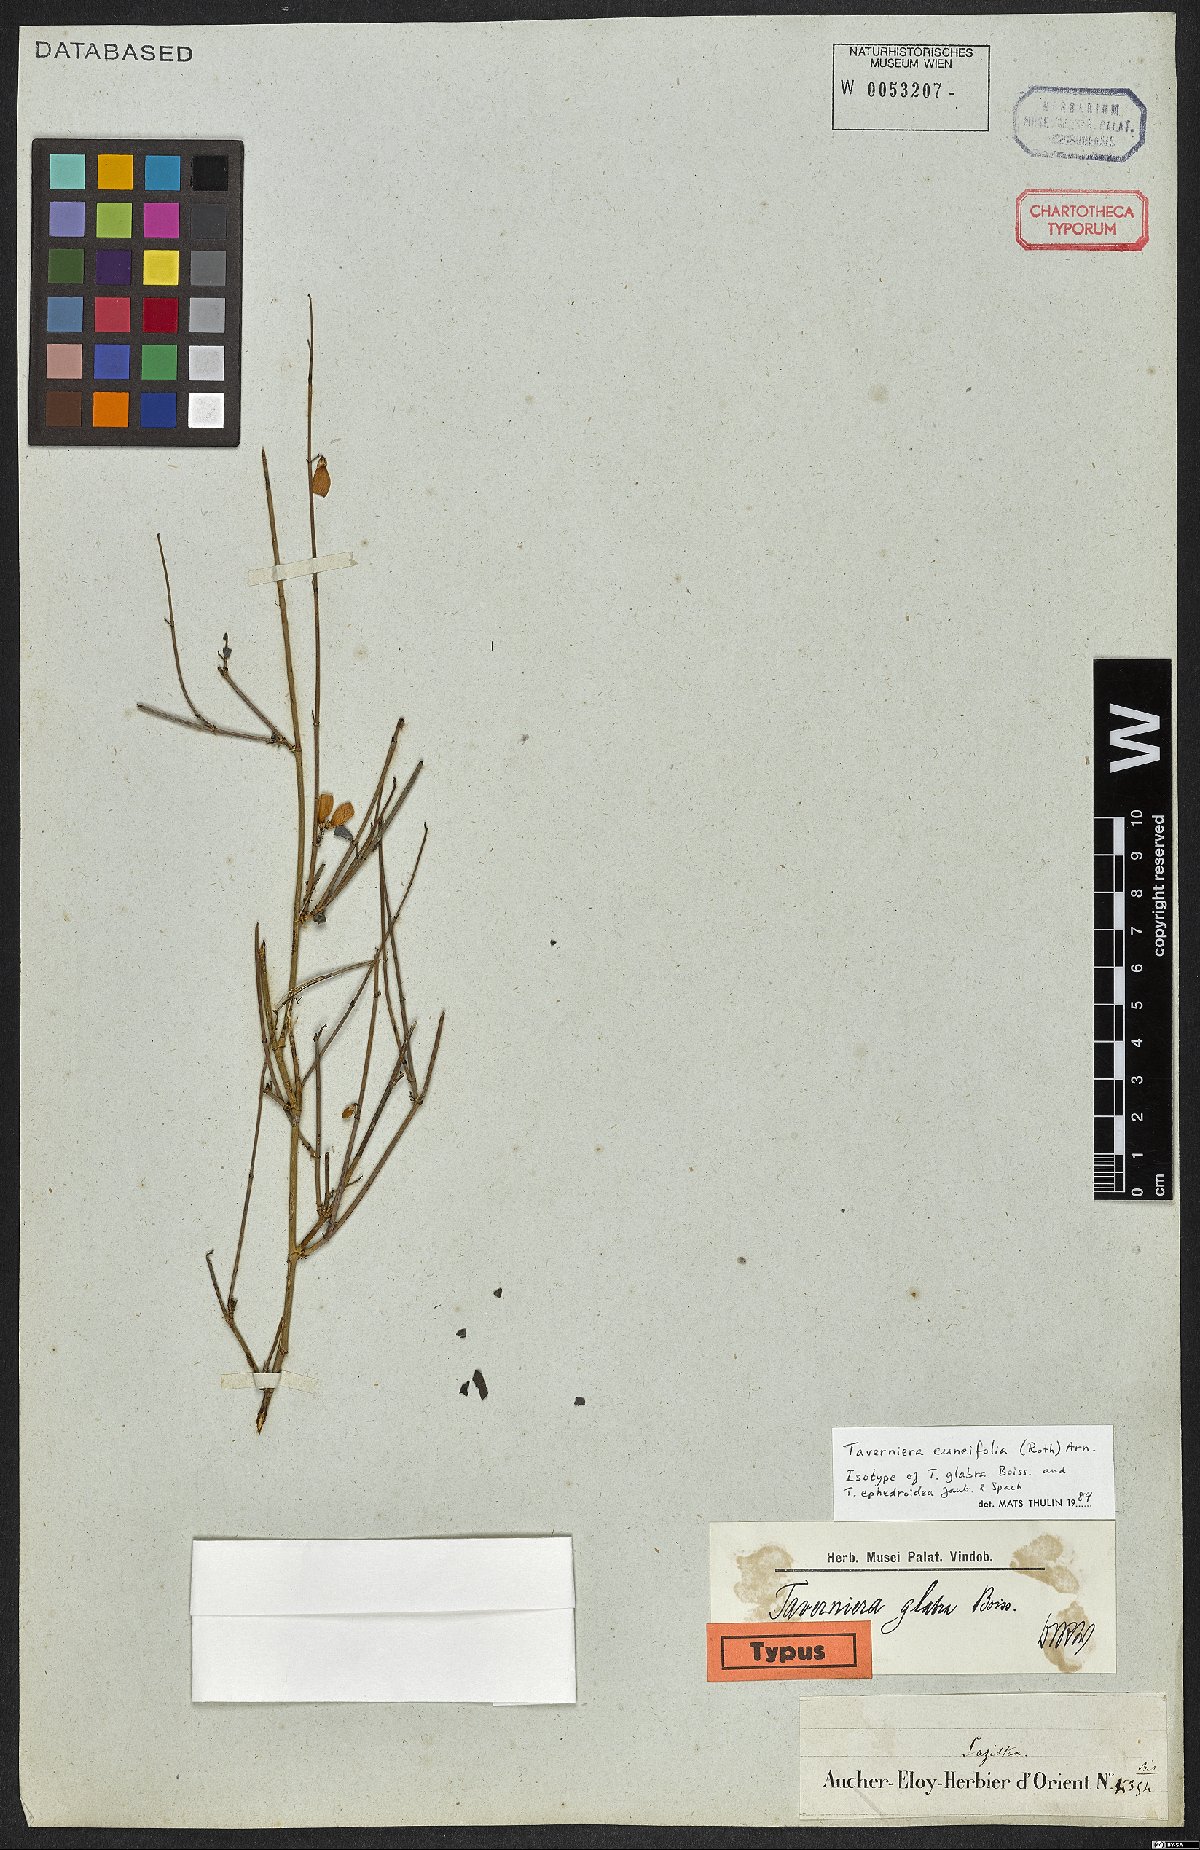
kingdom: Plantae
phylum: Tracheophyta
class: Magnoliopsida
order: Fabales
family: Fabaceae
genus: Taverniera
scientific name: Taverniera cuneifolia
